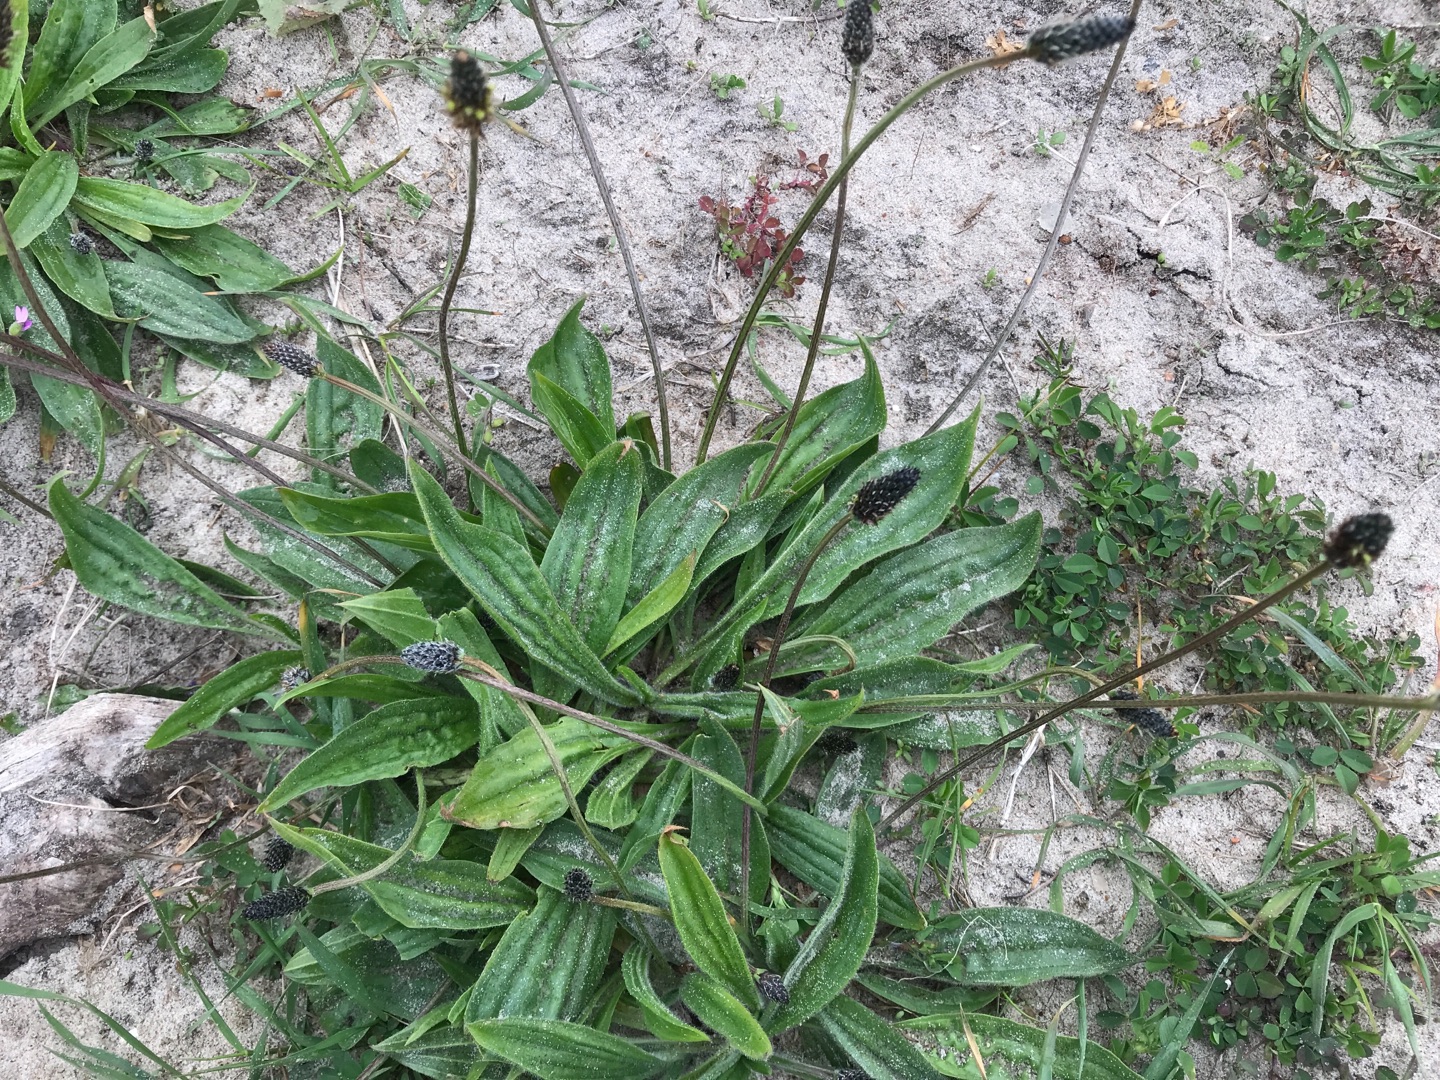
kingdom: Plantae
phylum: Tracheophyta
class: Magnoliopsida
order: Lamiales
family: Plantaginaceae
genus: Plantago
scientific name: Plantago lanceolata
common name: Lancet-vejbred
